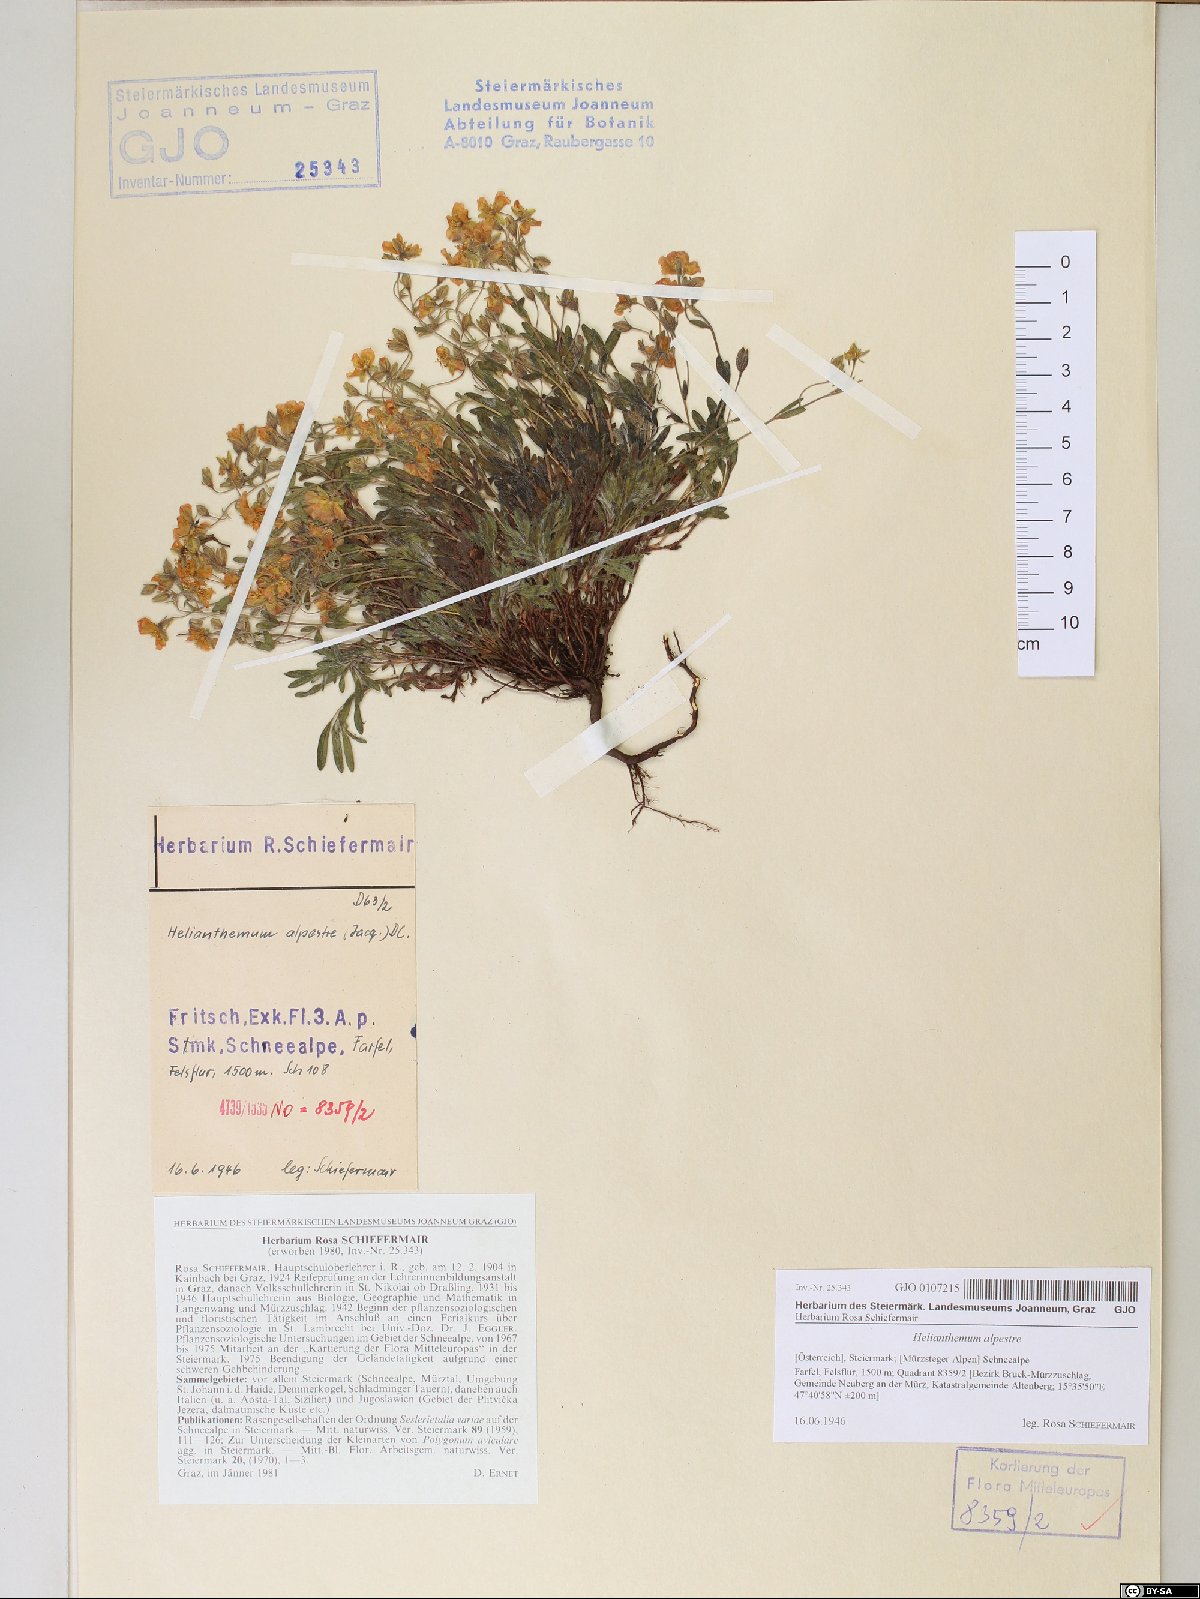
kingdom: Plantae
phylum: Tracheophyta
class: Magnoliopsida
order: Malvales
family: Cistaceae
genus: Helianthemum
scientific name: Helianthemum alpestre
